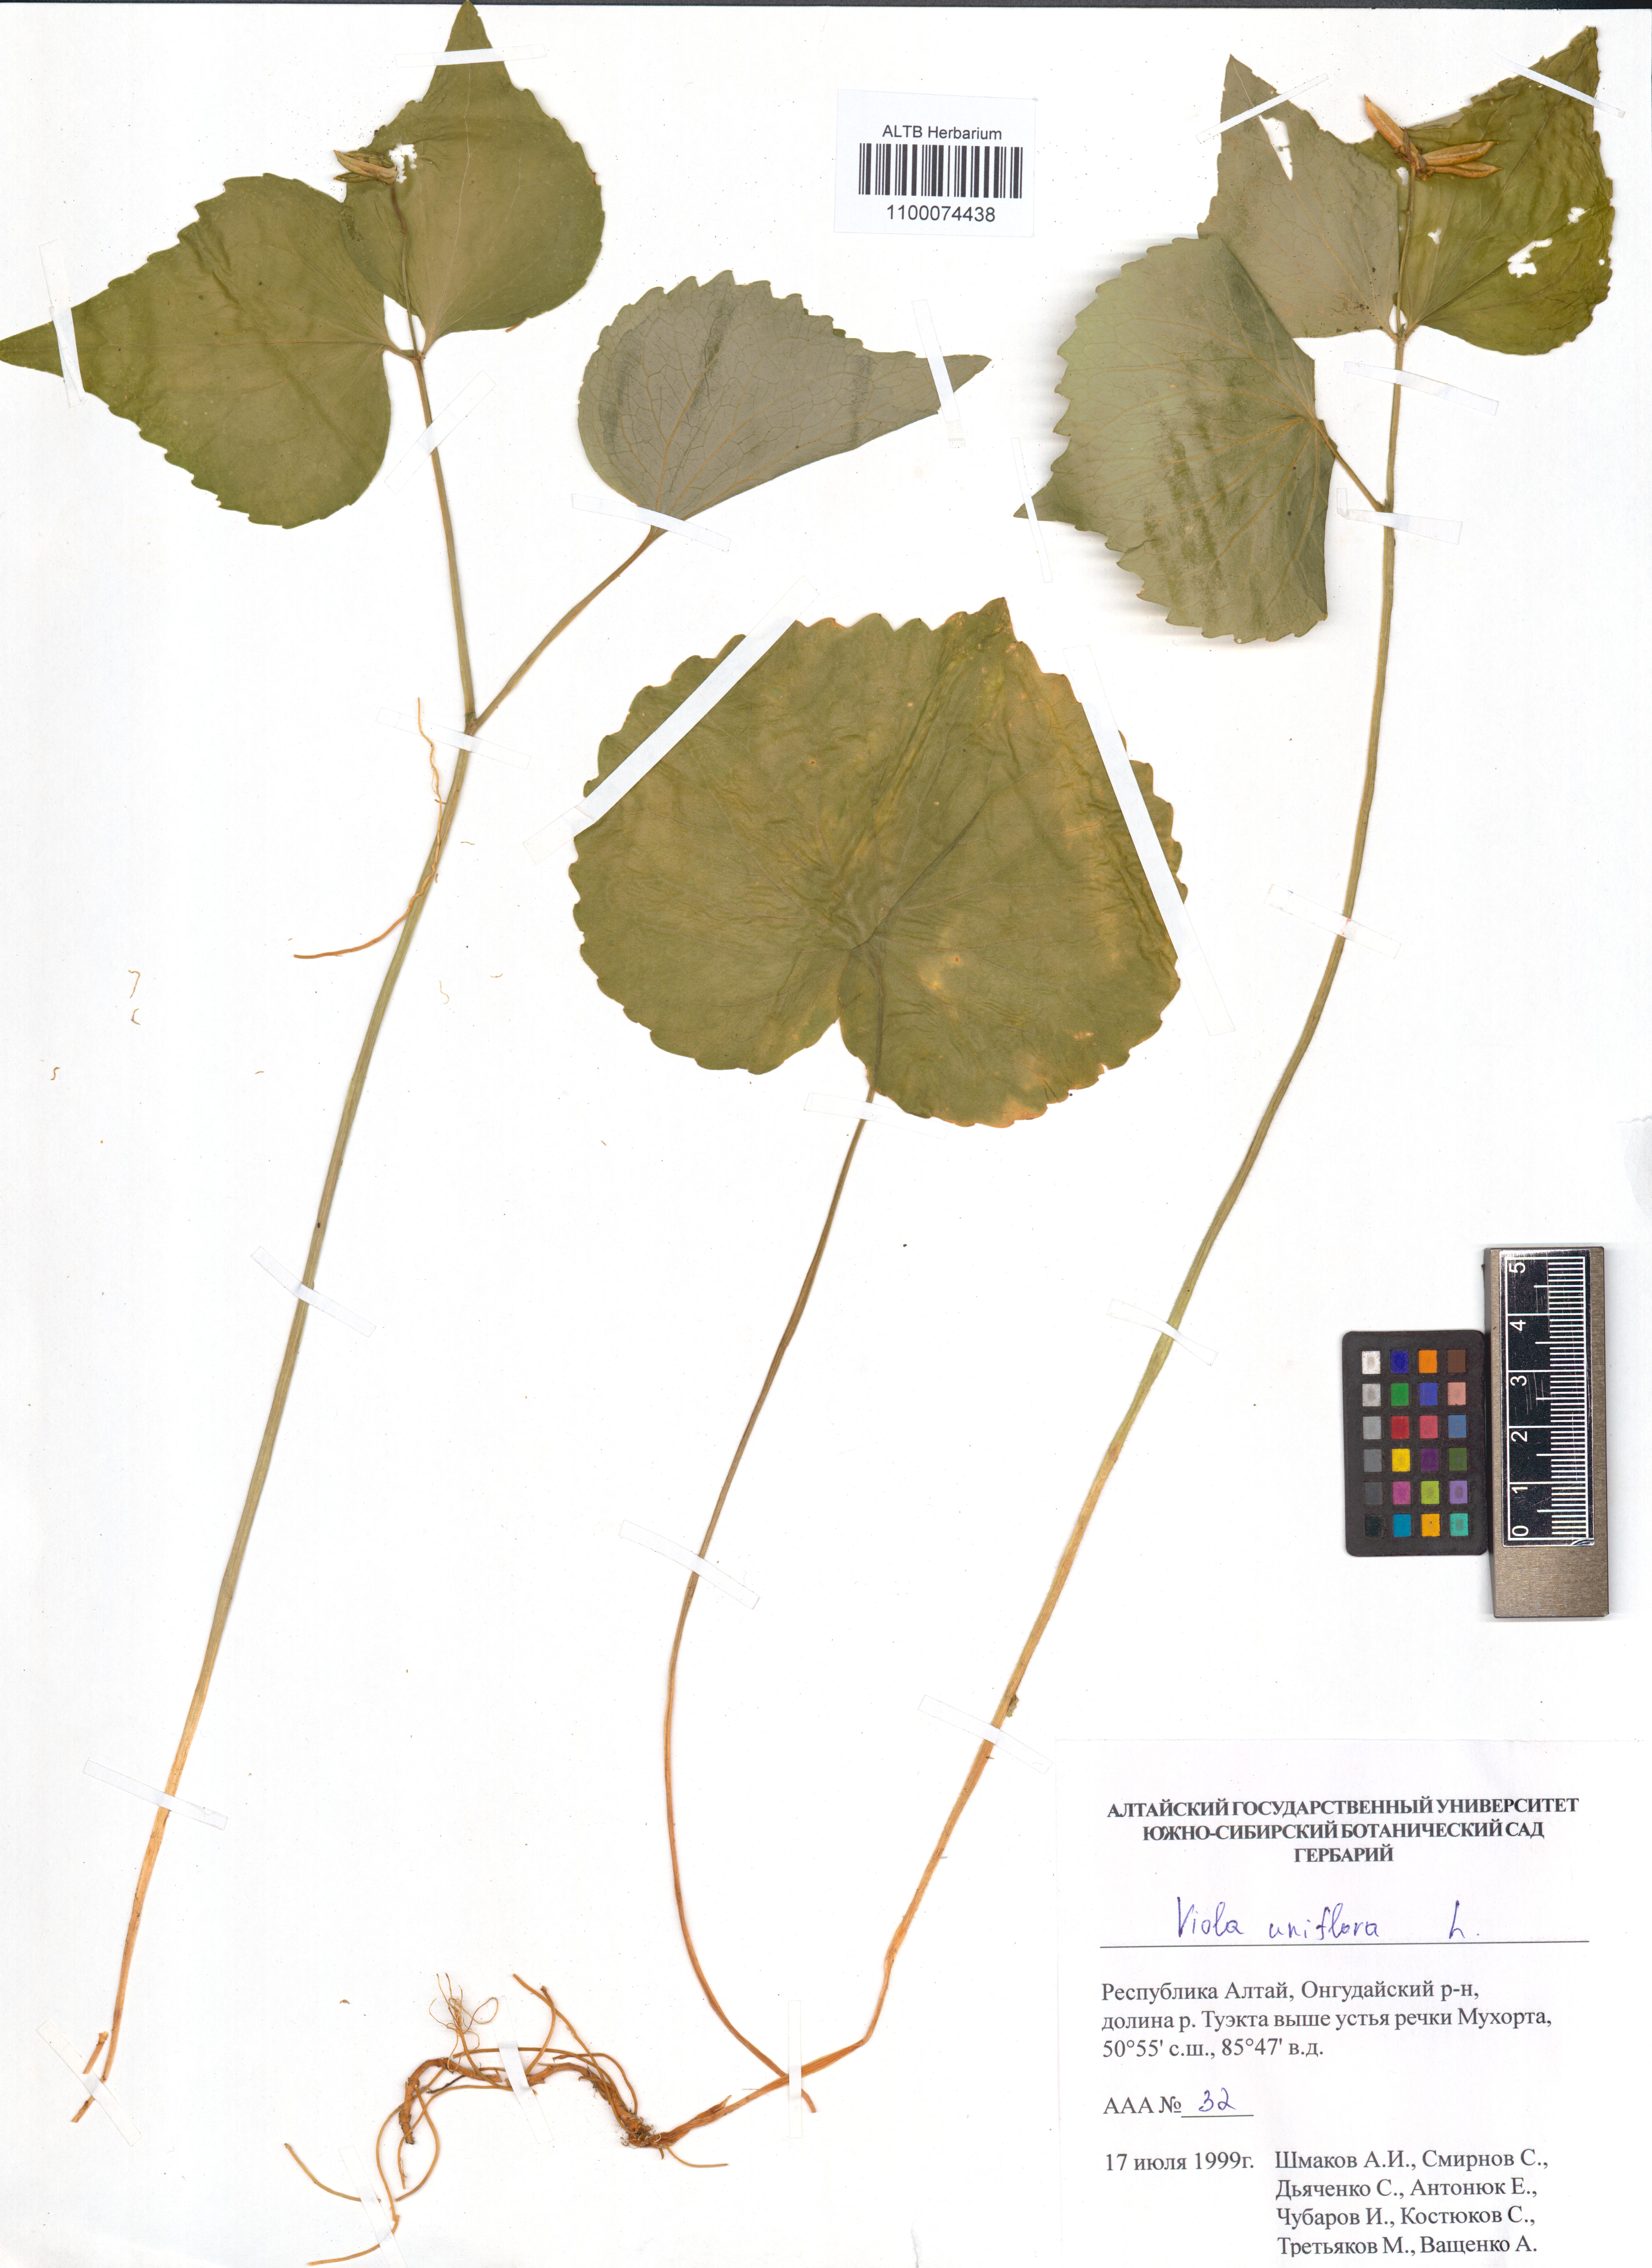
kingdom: Plantae
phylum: Tracheophyta
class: Magnoliopsida
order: Malpighiales
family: Violaceae
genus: Viola
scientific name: Viola uniflora
